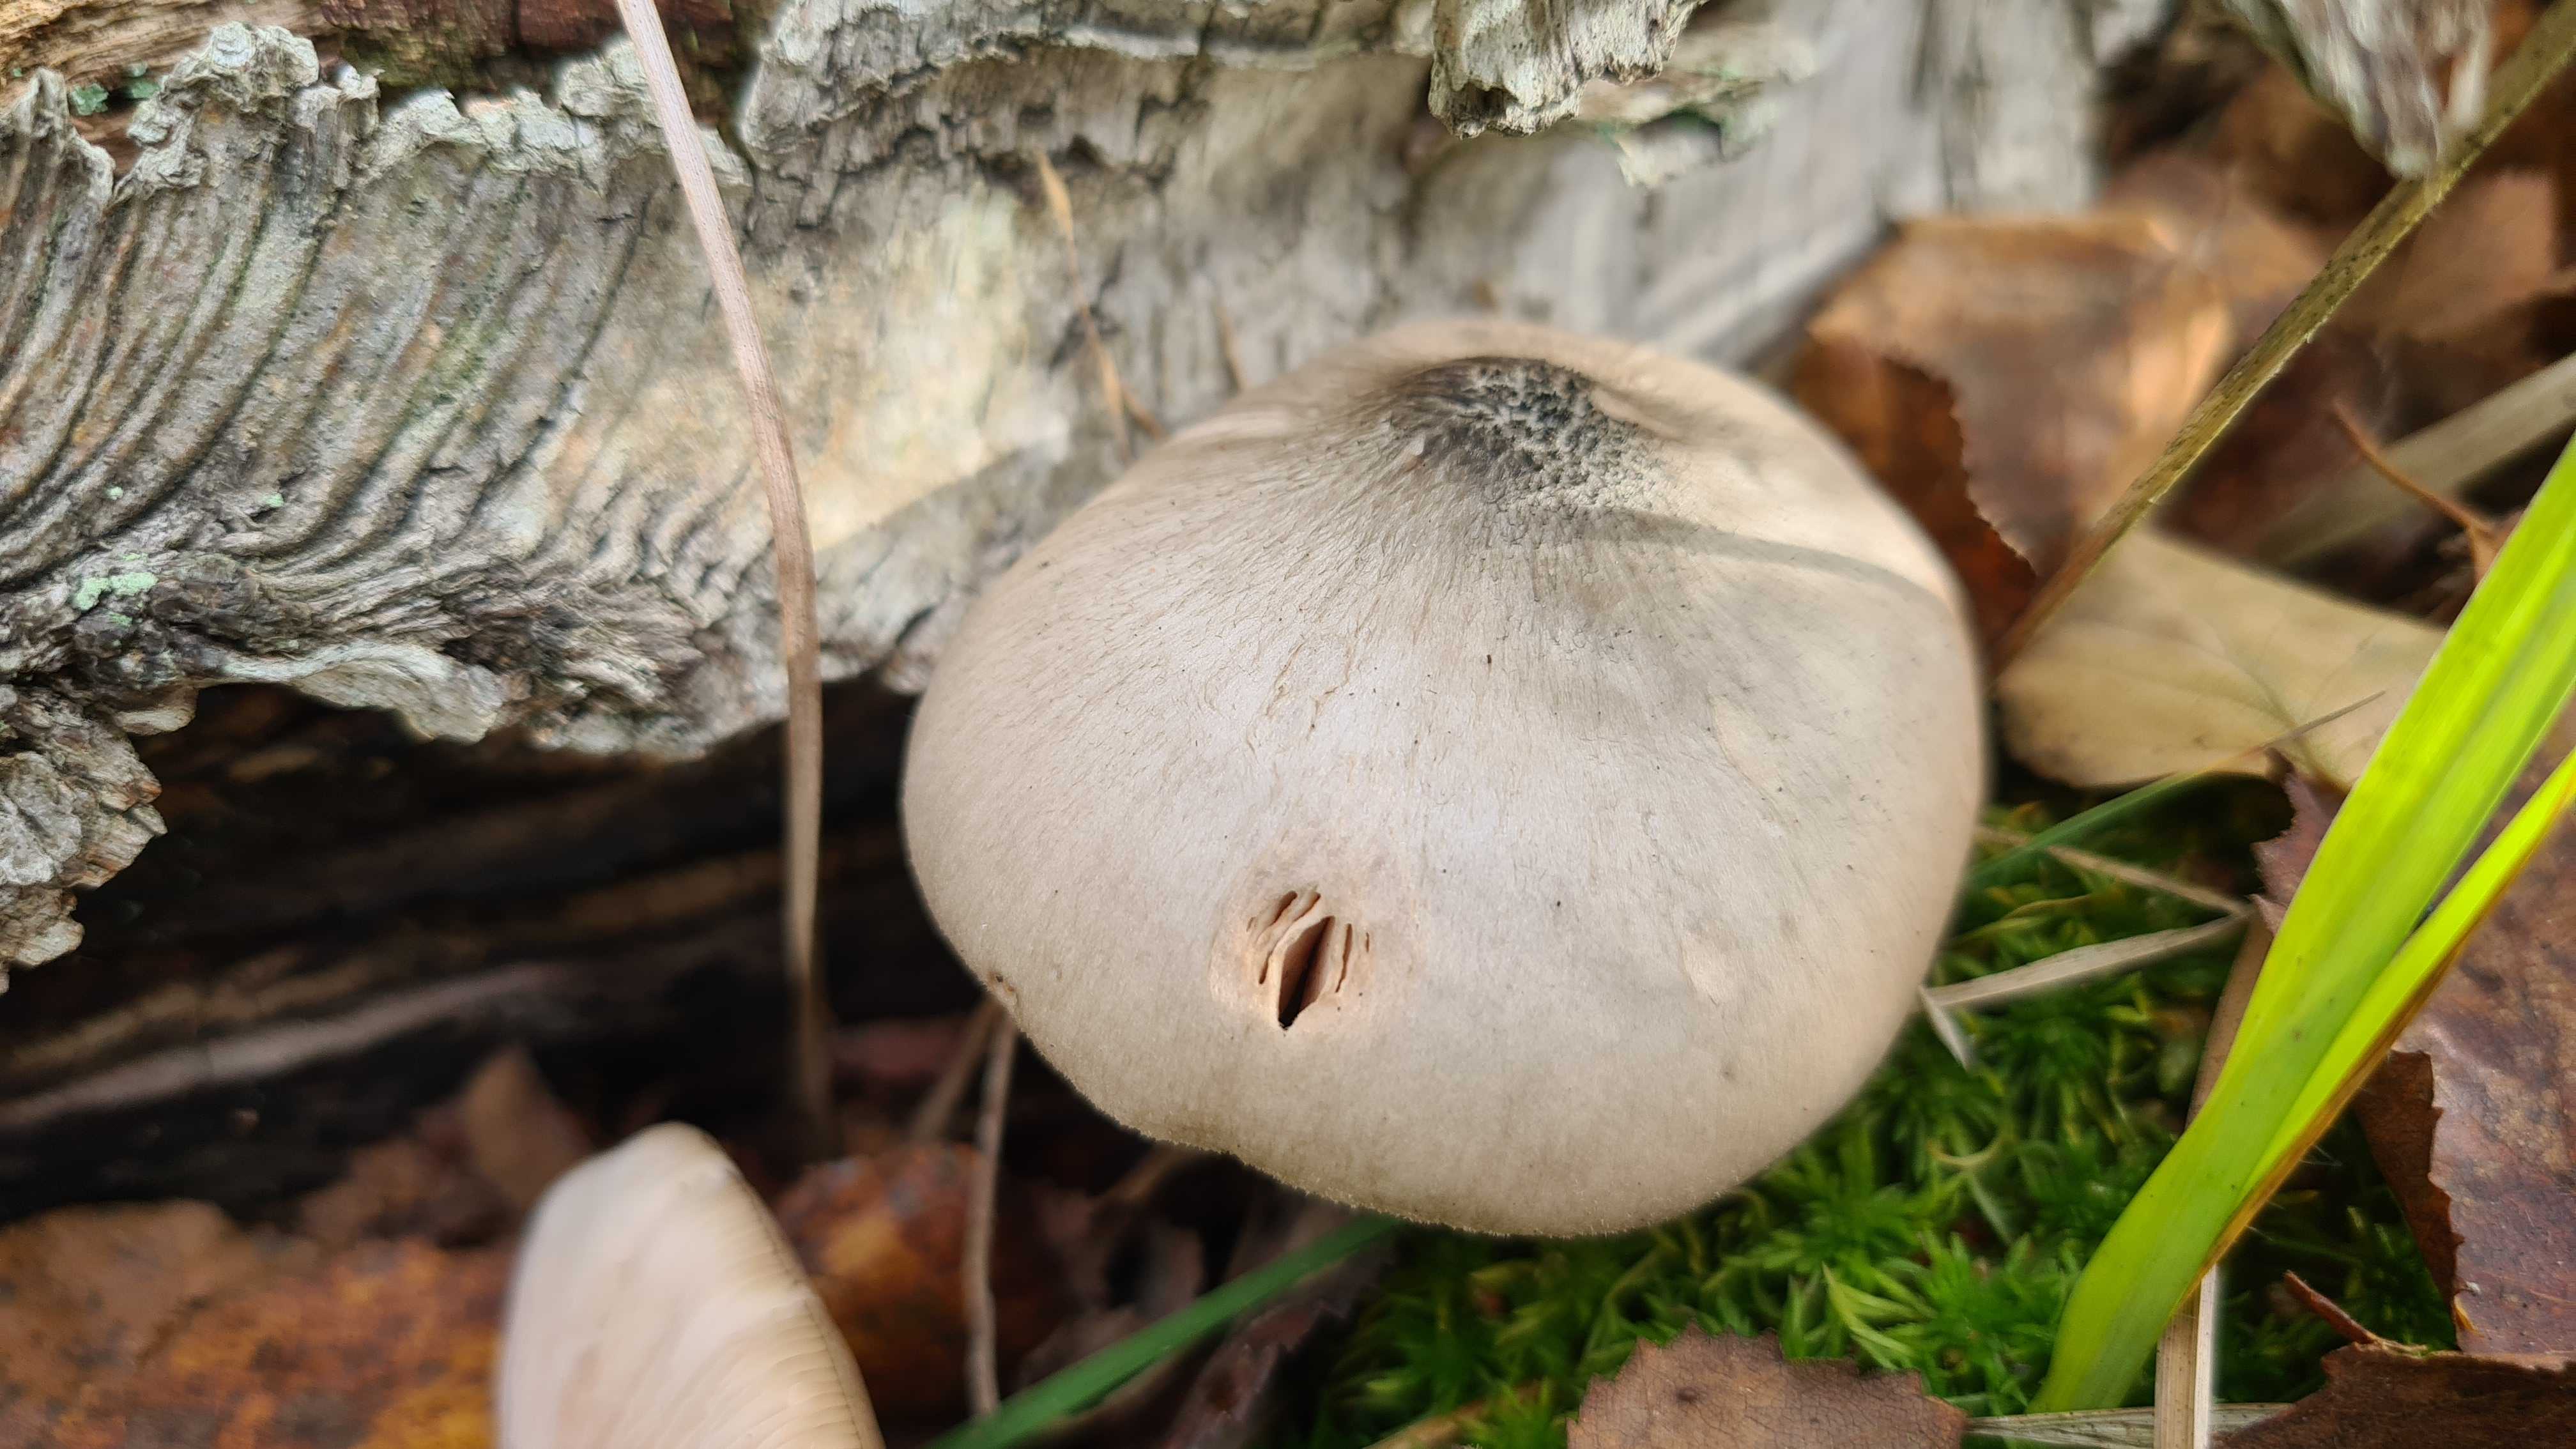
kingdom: Fungi
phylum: Basidiomycota
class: Agaricomycetes
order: Agaricales
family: Pluteaceae
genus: Pluteus
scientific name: Pluteus salicinus
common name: stiv skærmhat
